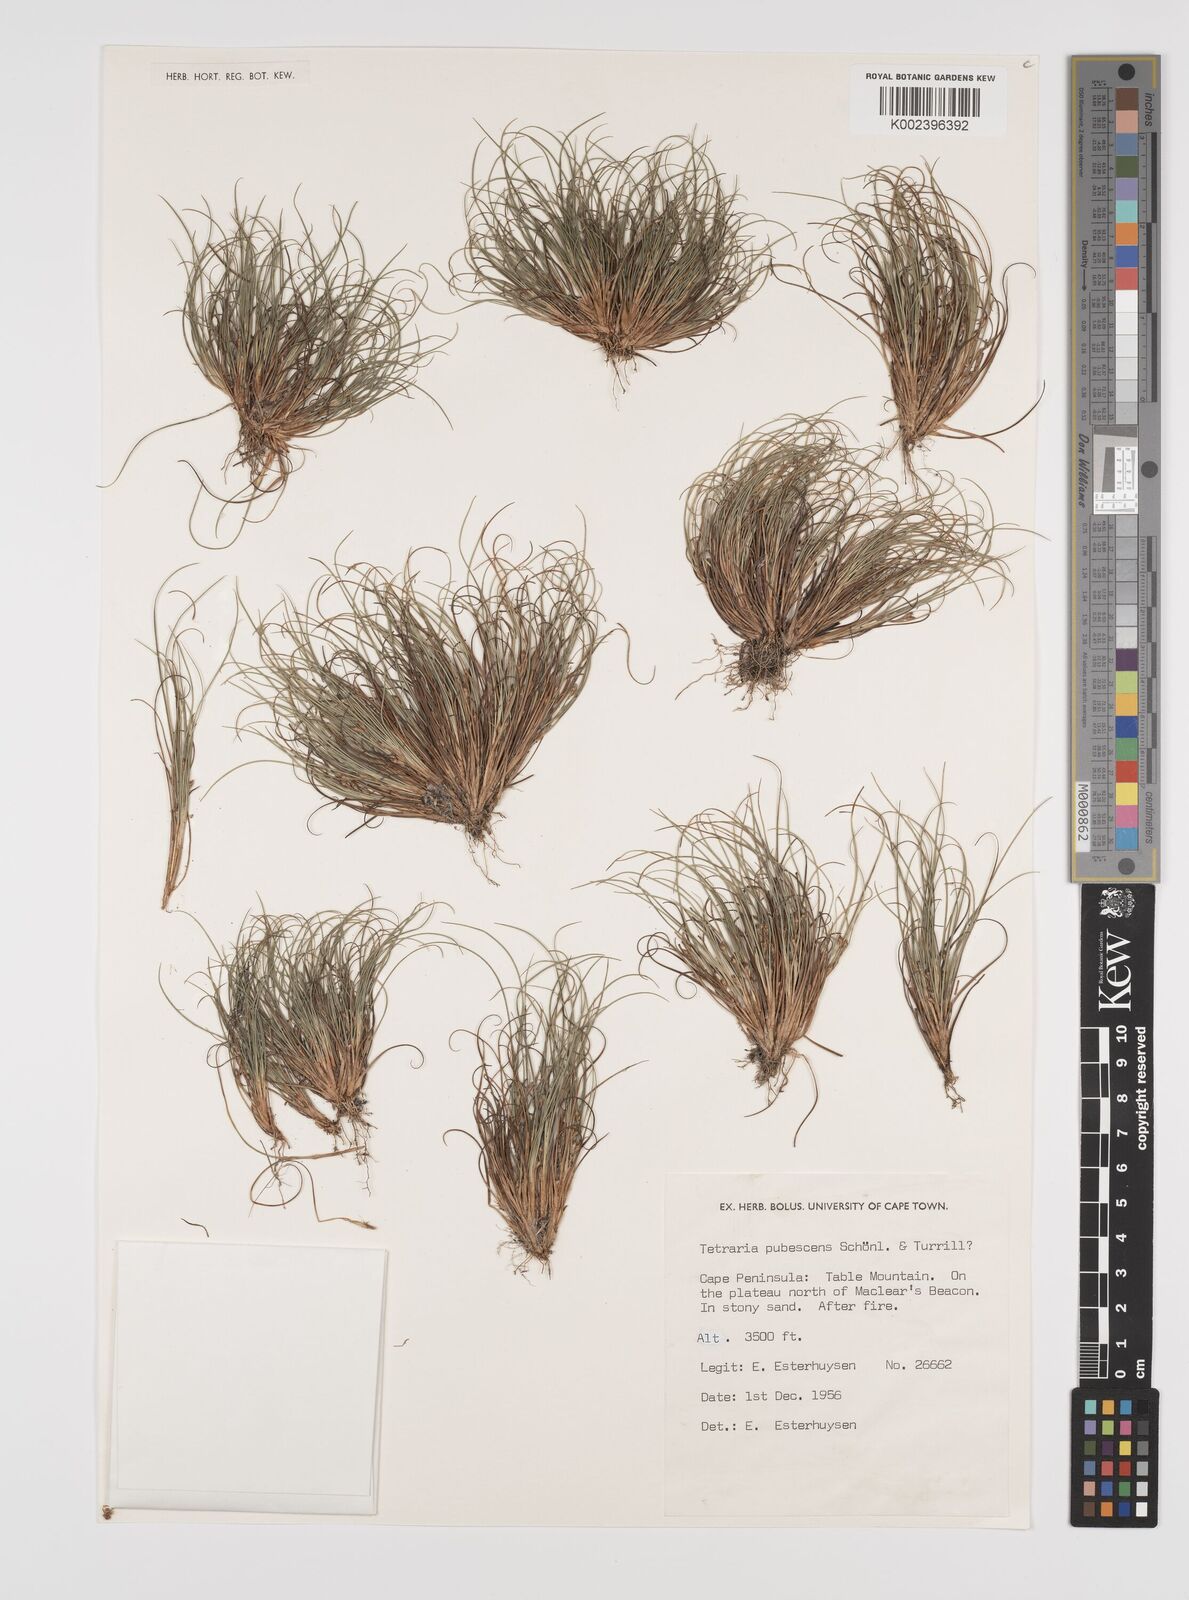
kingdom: Plantae
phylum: Tracheophyta
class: Liliopsida
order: Poales
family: Cyperaceae
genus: Tetraria
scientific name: Tetraria pubescens
